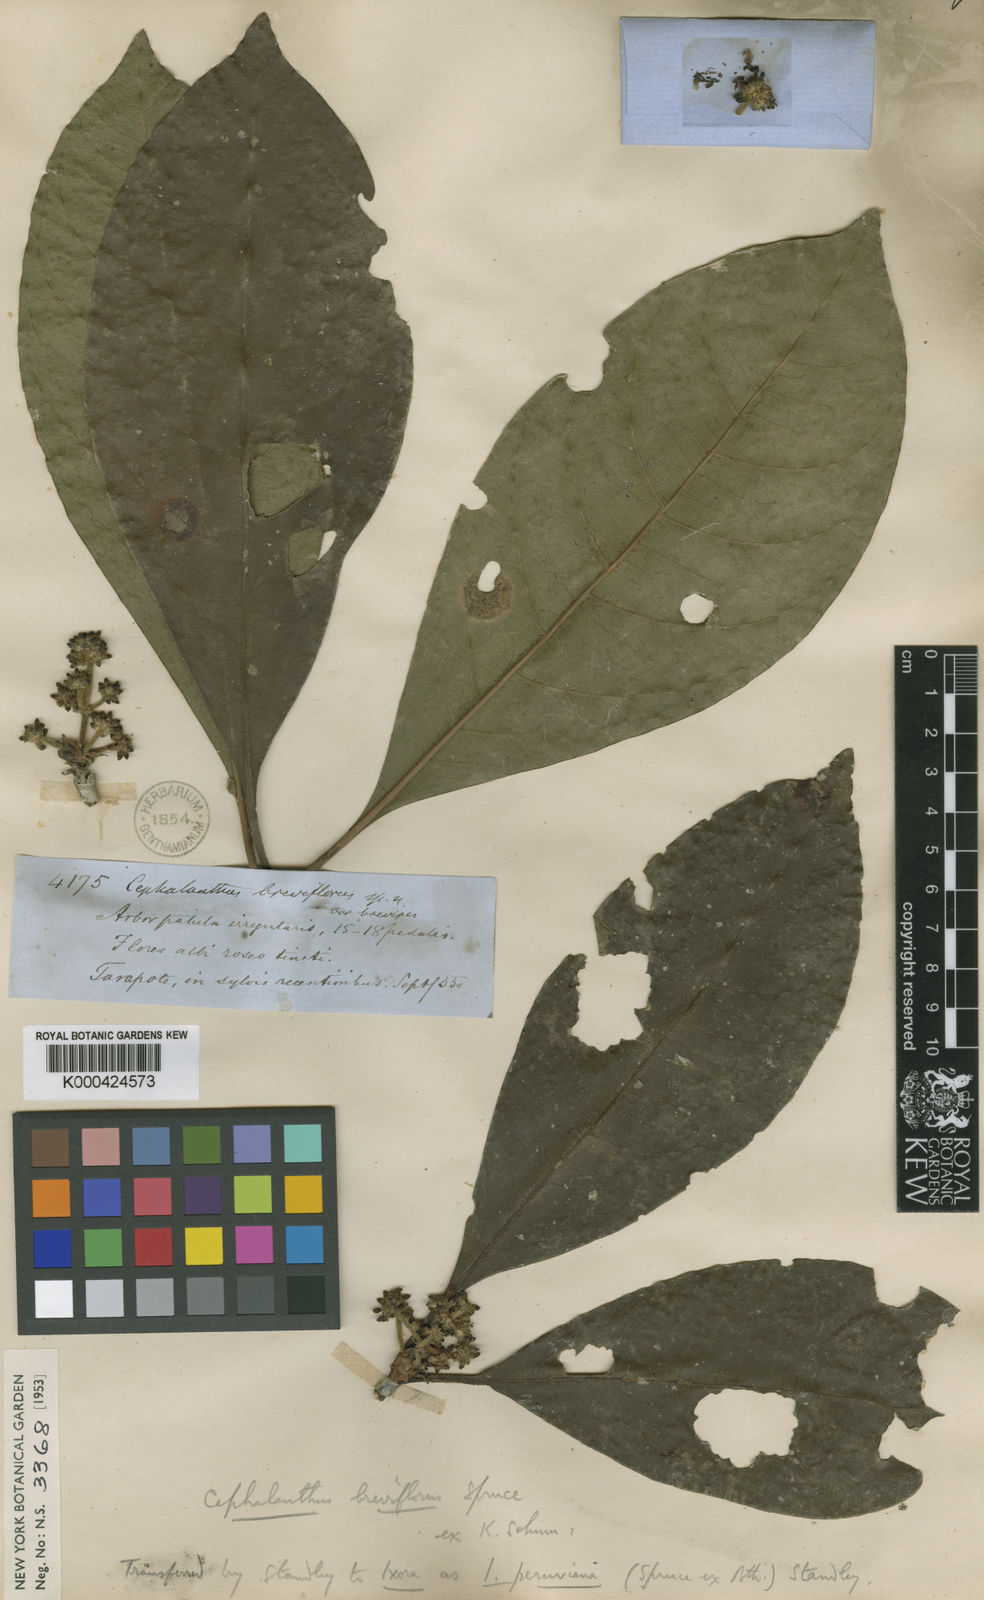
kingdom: Plantae
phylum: Tracheophyta
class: Magnoliopsida
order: Gentianales
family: Rubiaceae
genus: Ixora
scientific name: Ixora peruviana
